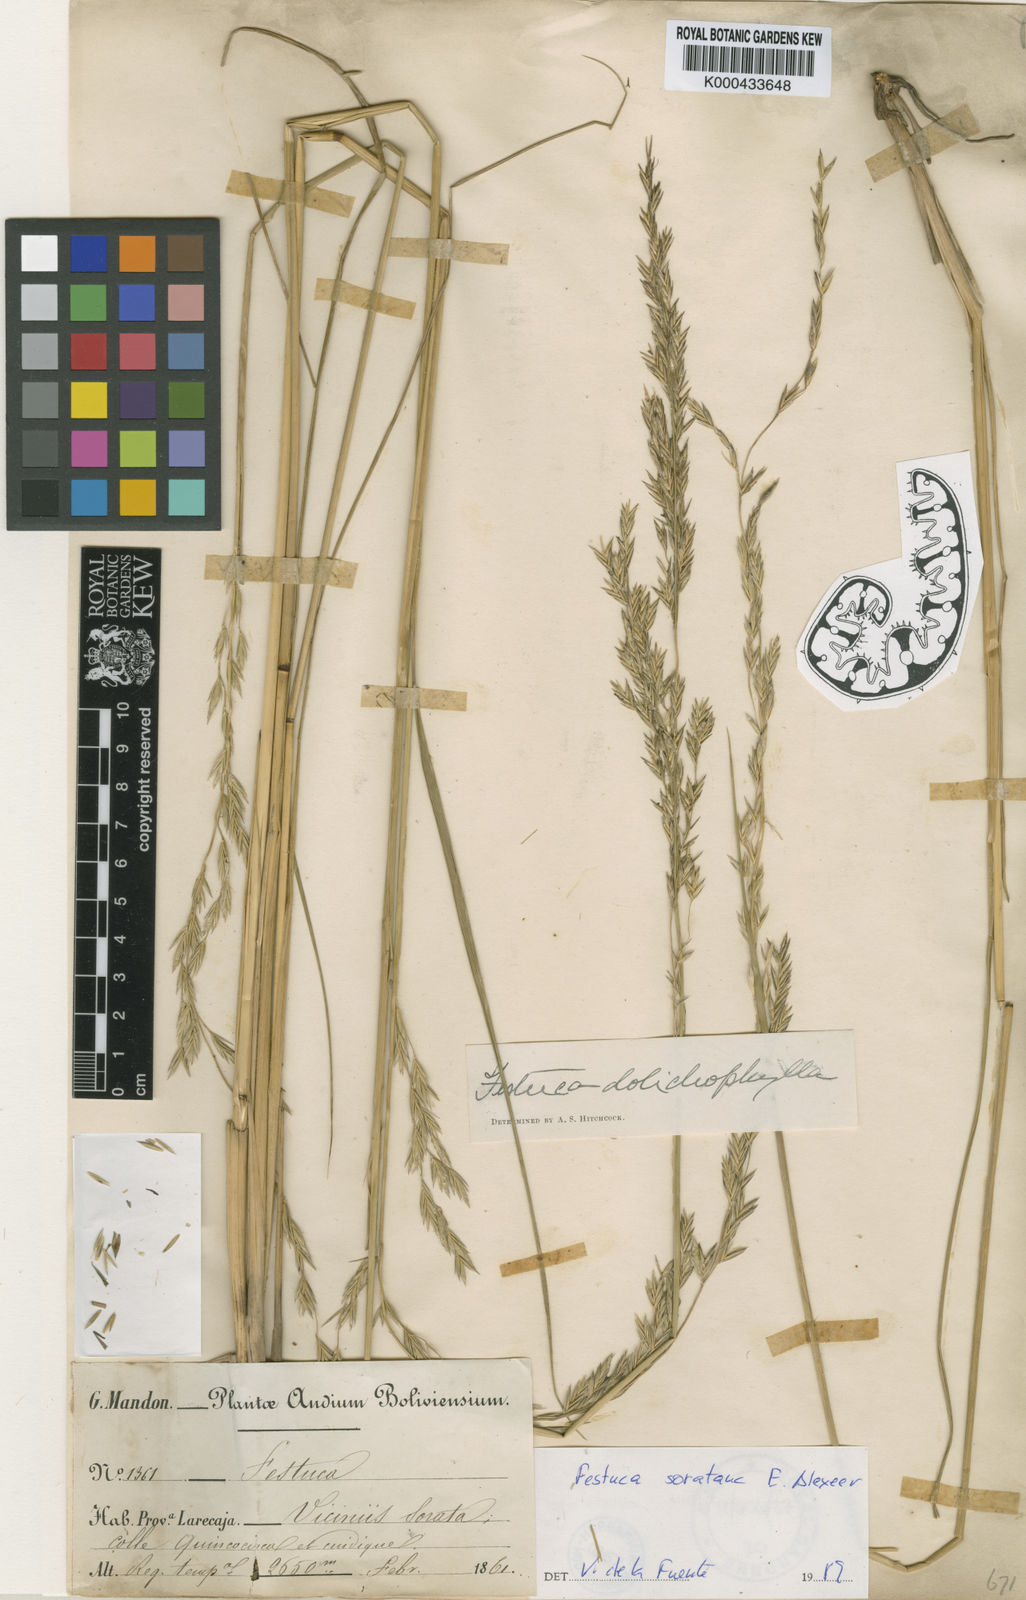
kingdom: Plantae
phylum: Tracheophyta
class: Liliopsida
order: Poales
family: Poaceae
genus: Festuca
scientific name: Festuca soratana
